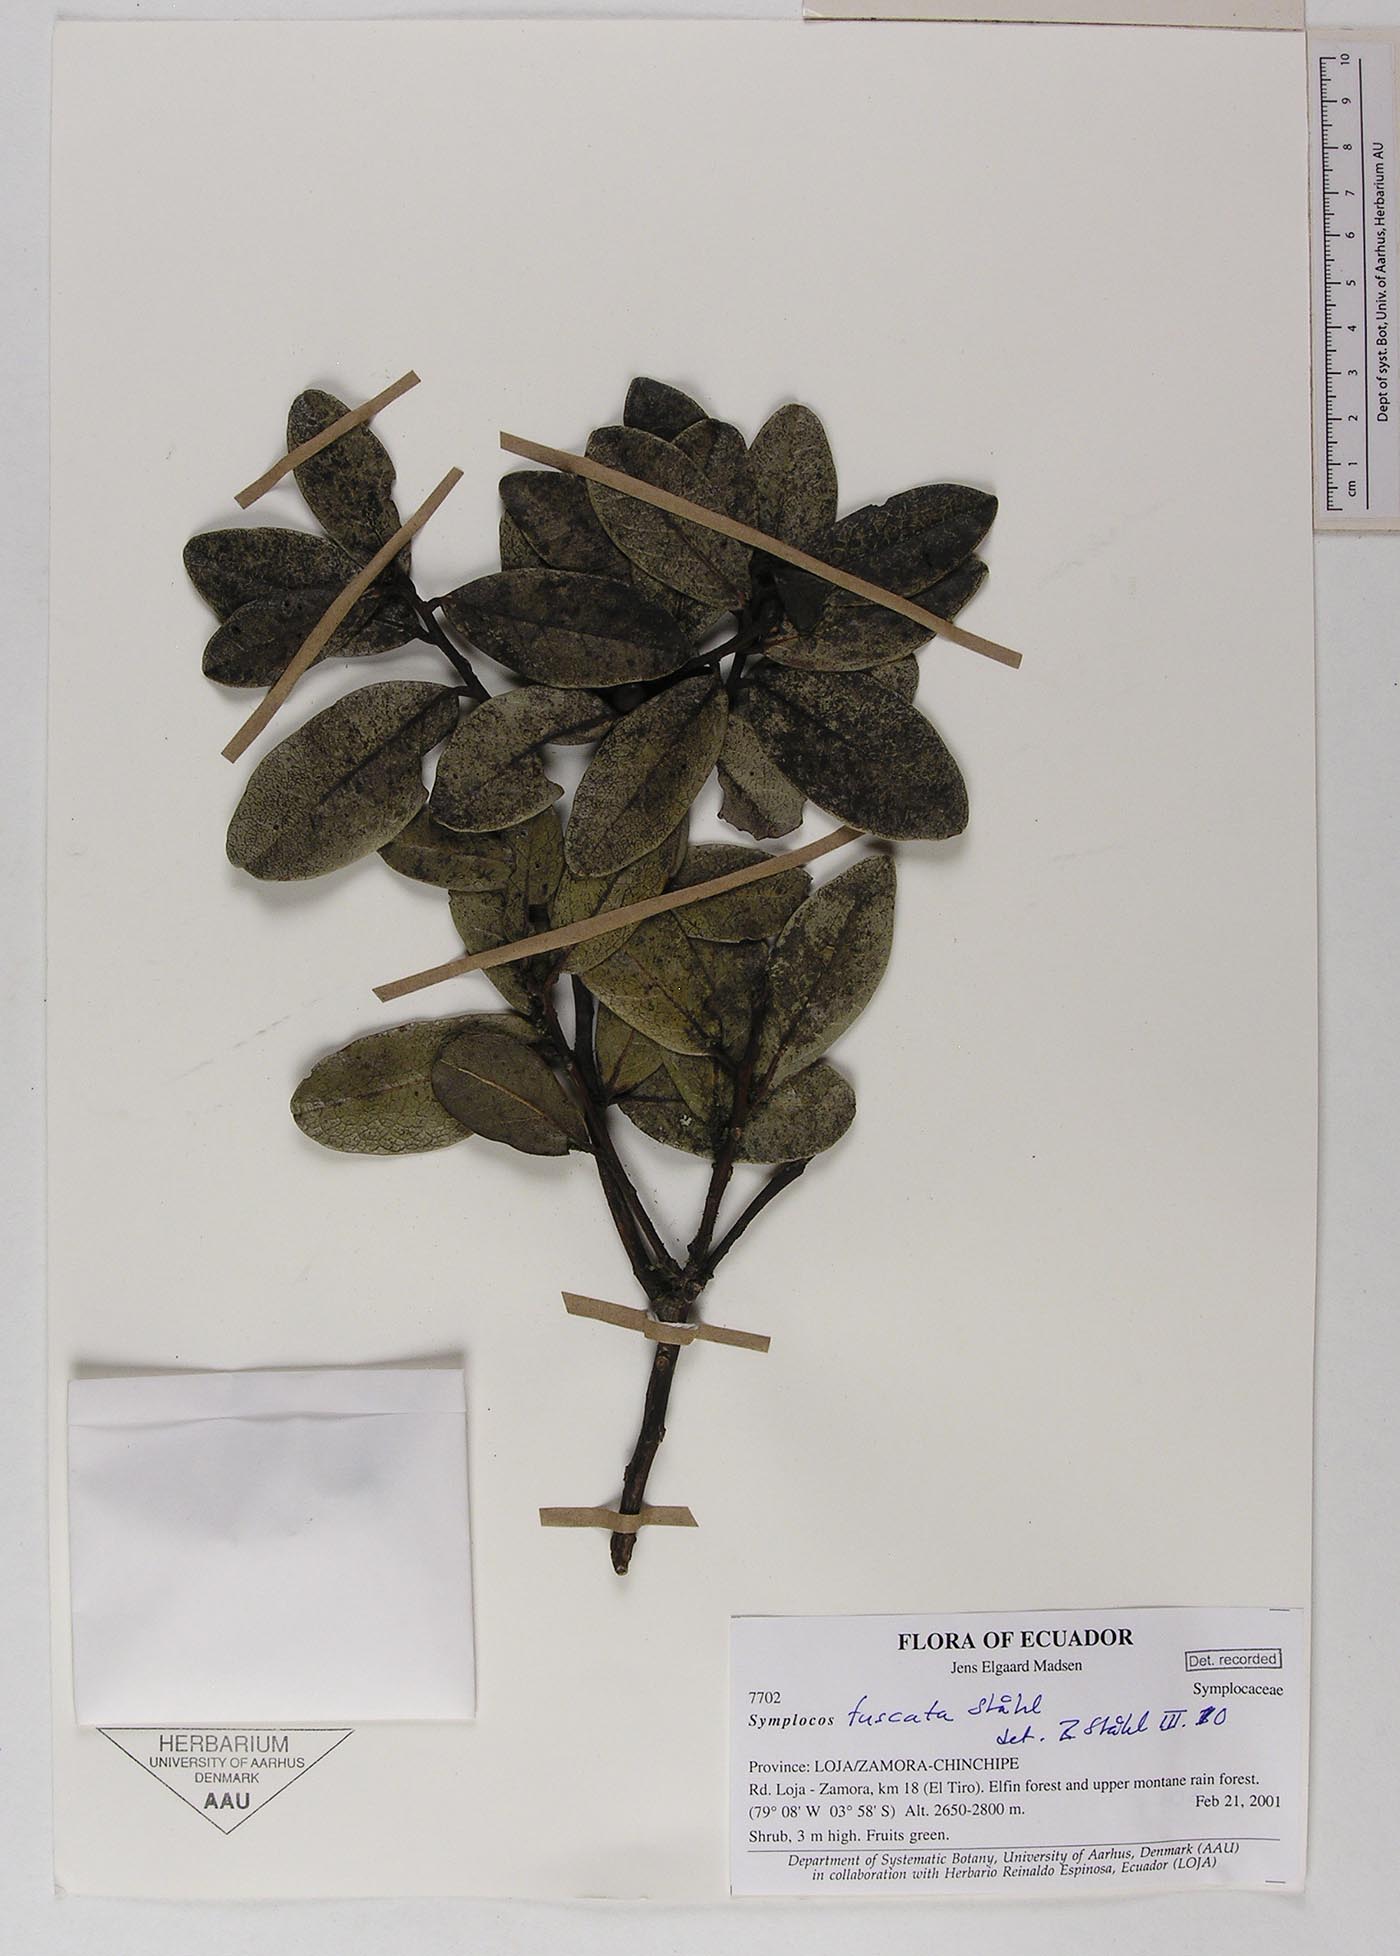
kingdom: Plantae
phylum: Tracheophyta
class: Magnoliopsida
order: Ericales
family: Symplocaceae
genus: Symplocos
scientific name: Symplocos fuscata
